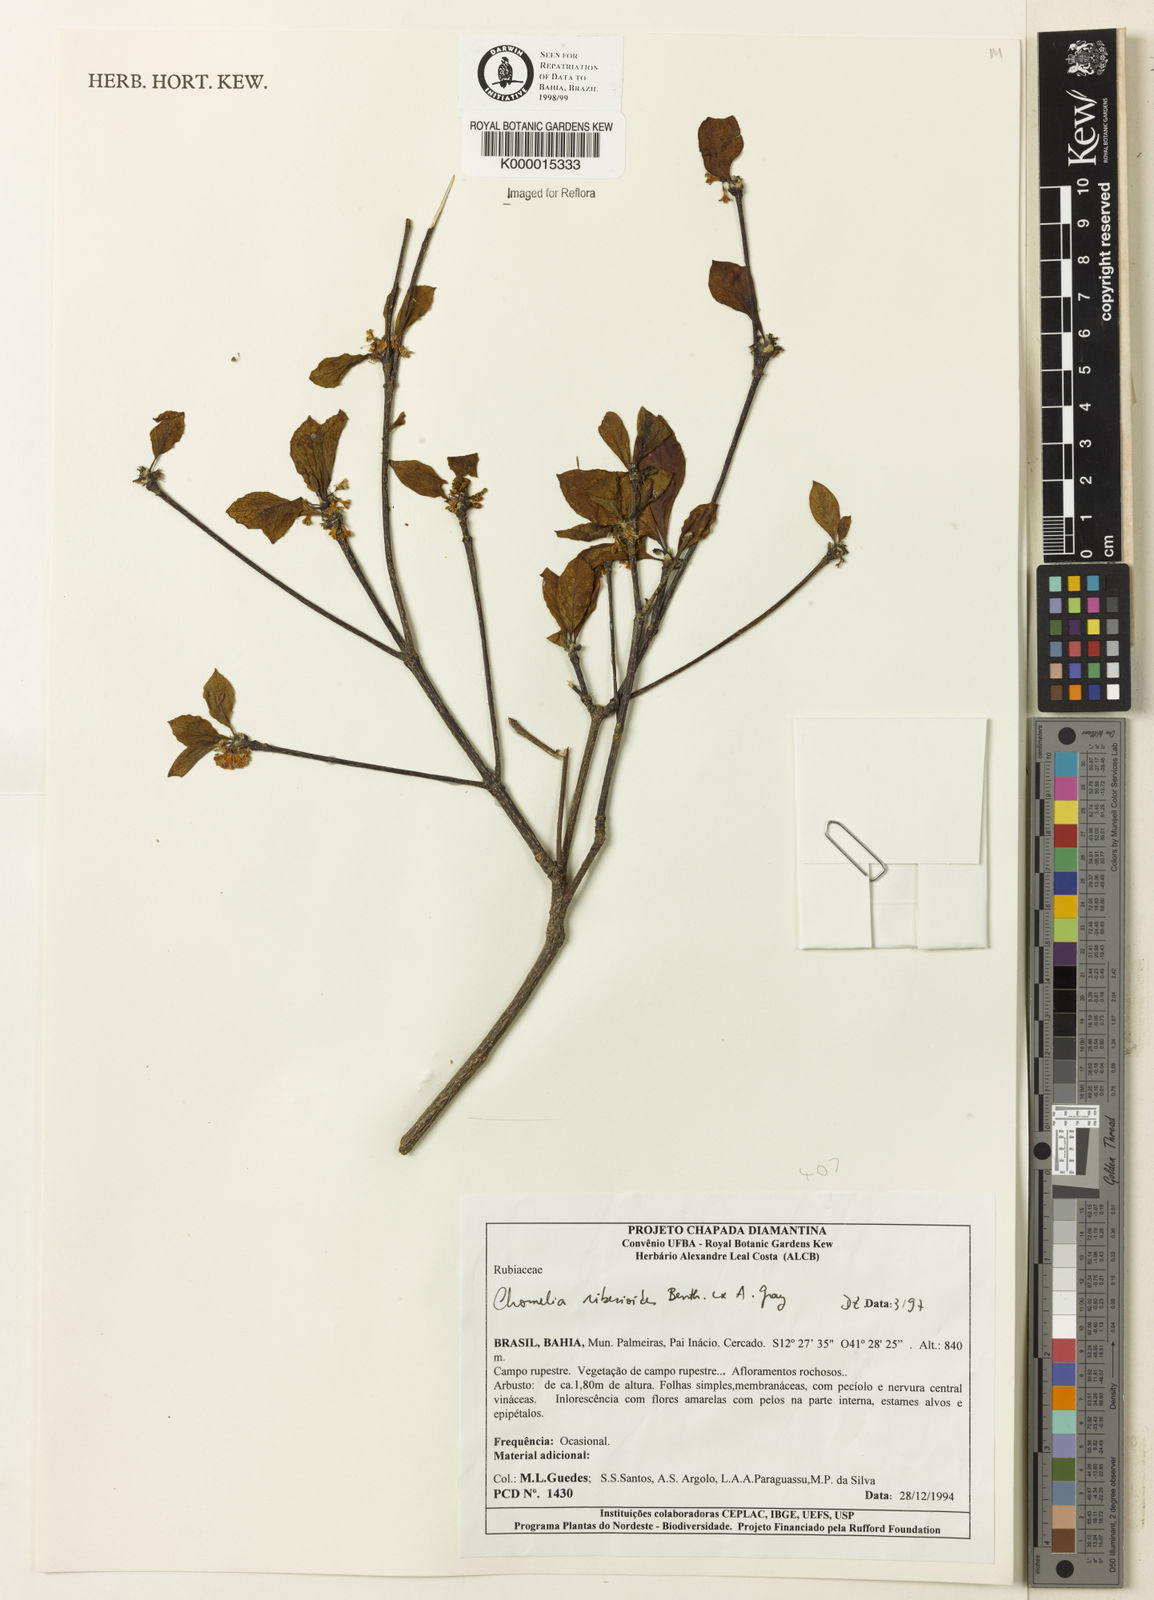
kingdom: Plantae
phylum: Tracheophyta
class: Magnoliopsida
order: Gentianales
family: Rubiaceae
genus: Chomelia
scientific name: Chomelia ribesioides
